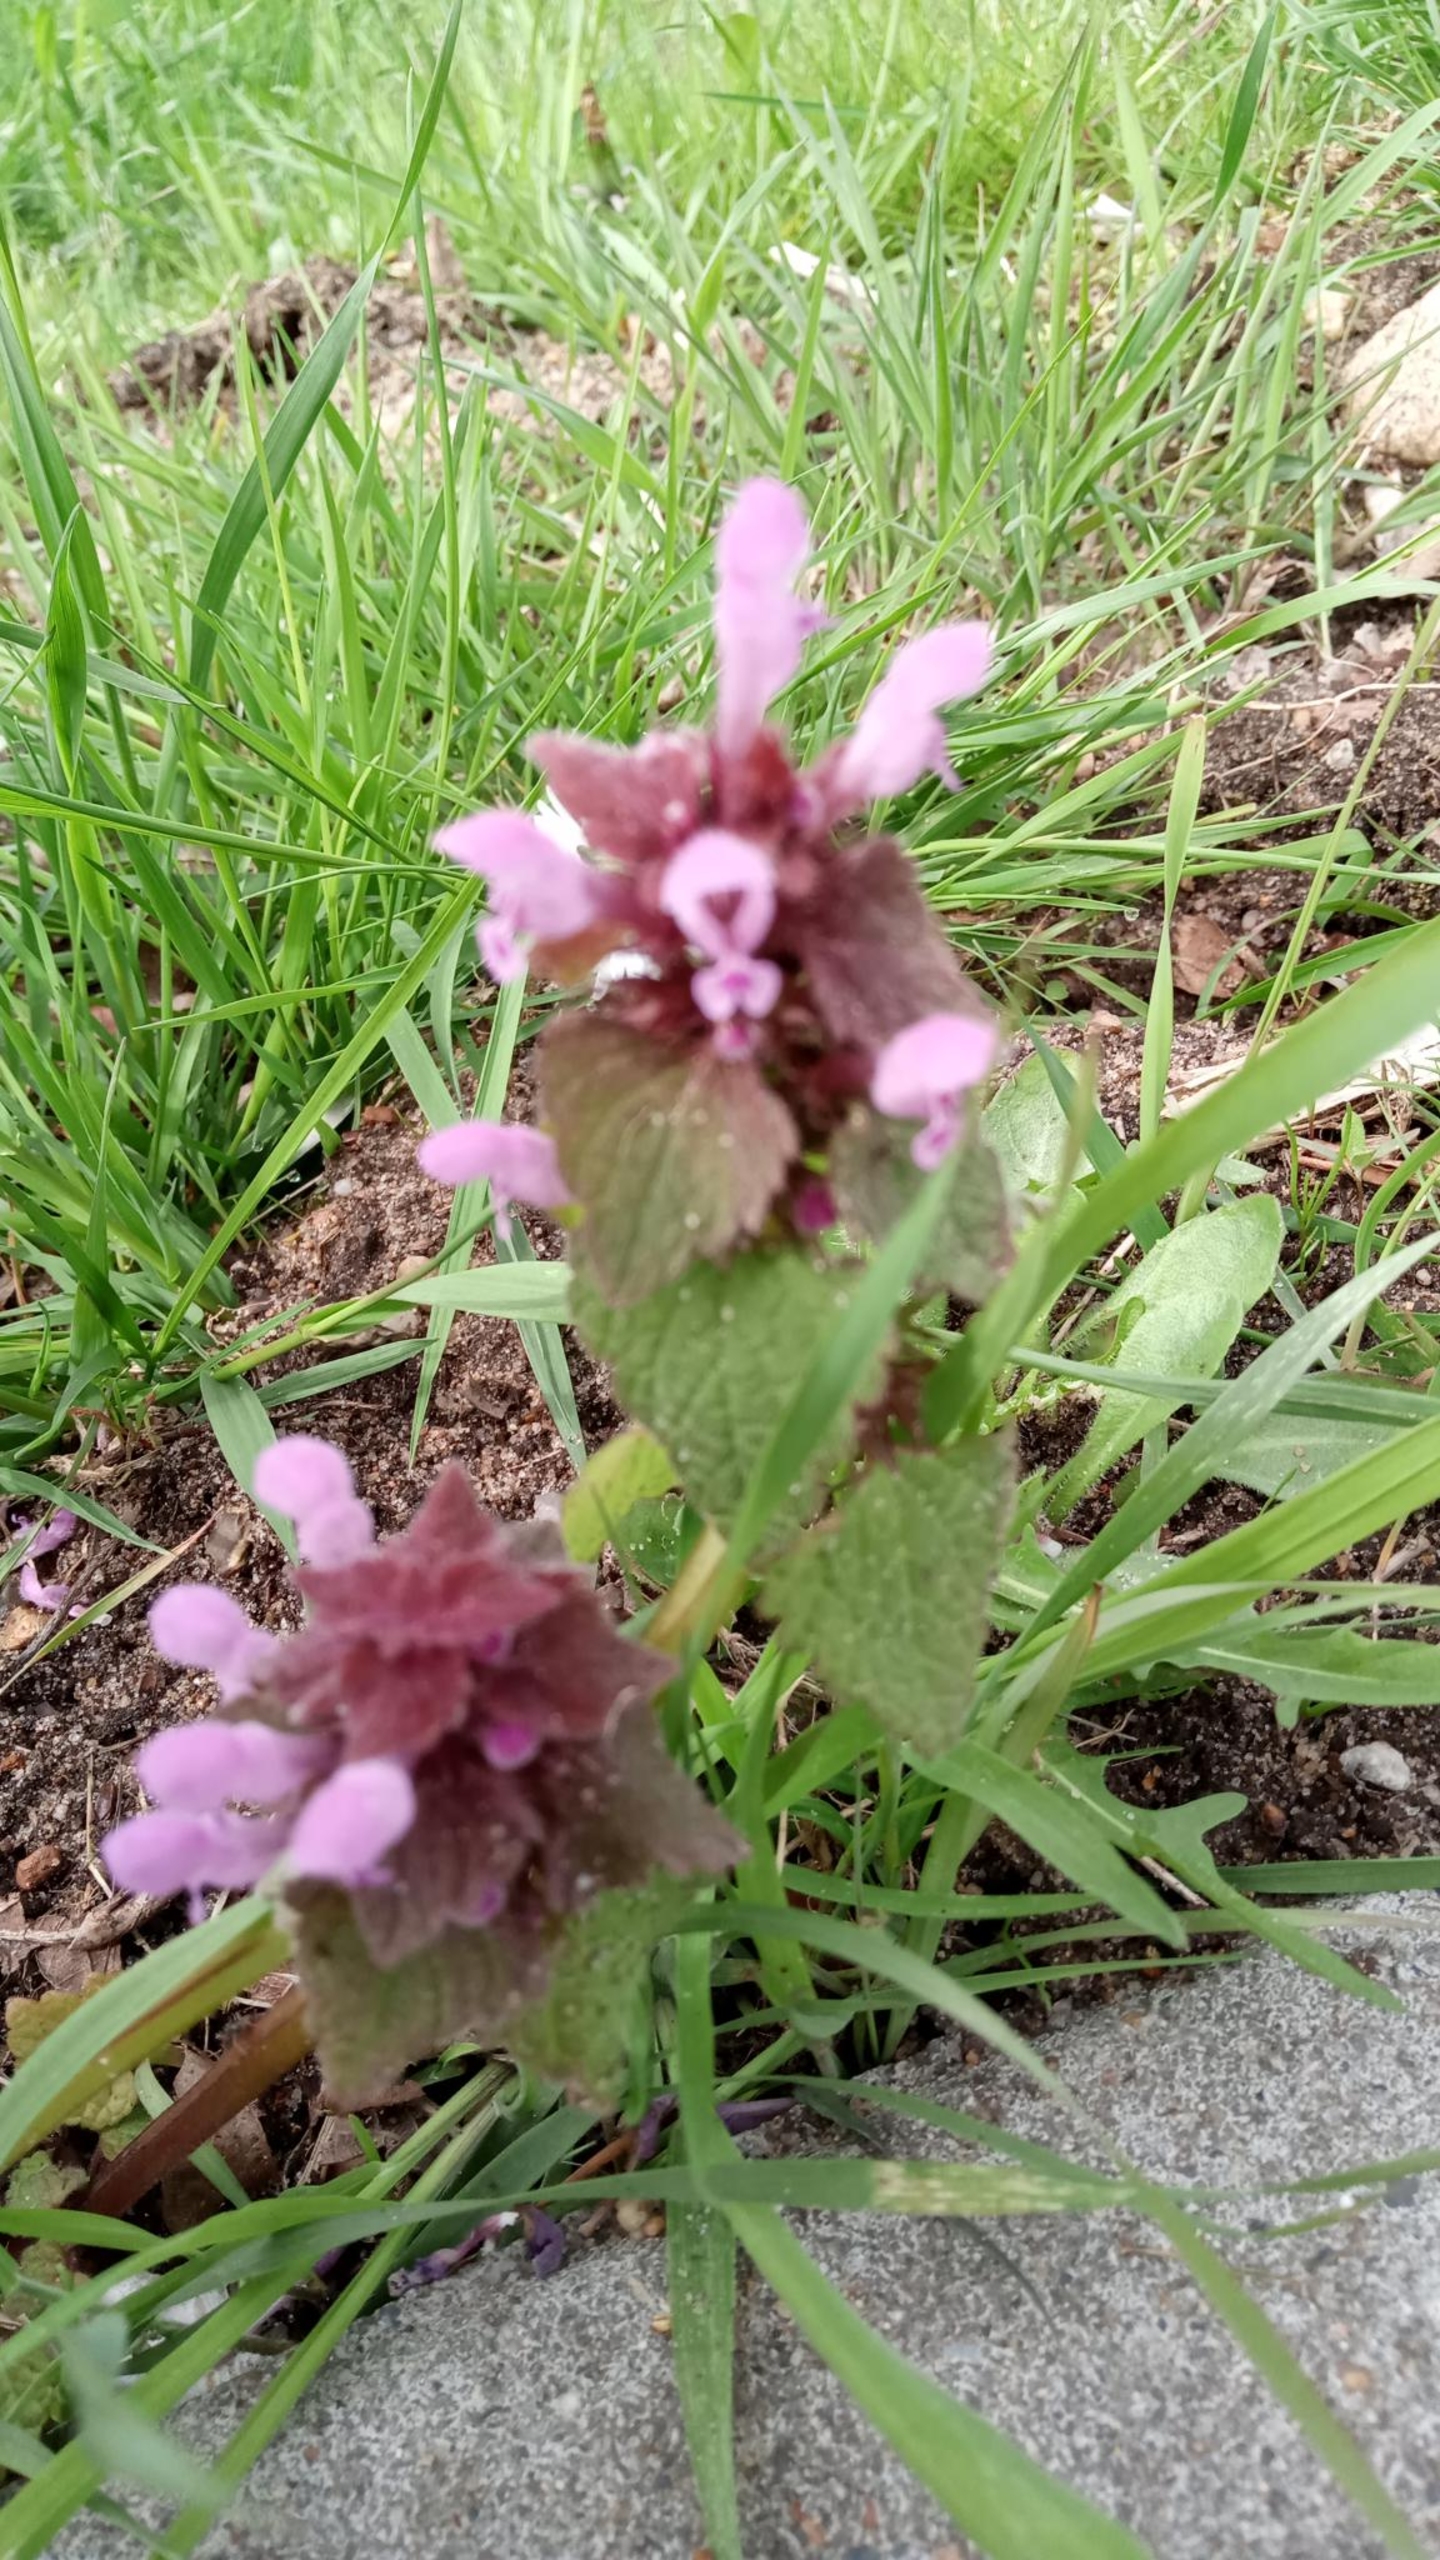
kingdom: Plantae
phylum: Tracheophyta
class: Magnoliopsida
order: Lamiales
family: Lamiaceae
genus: Lamium
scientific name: Lamium purpureum
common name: Rød tvetand
